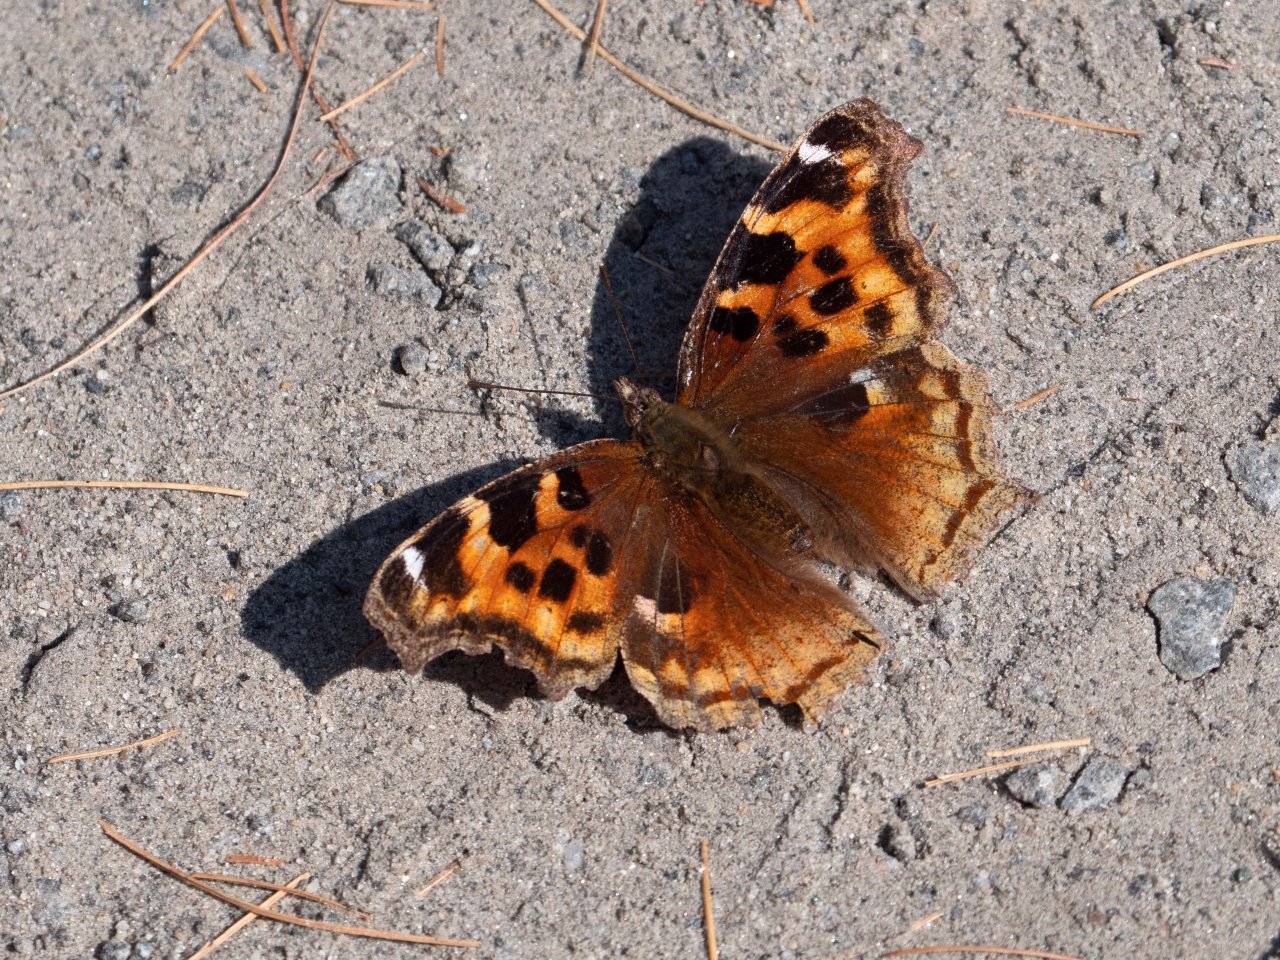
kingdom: Animalia
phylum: Arthropoda
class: Insecta
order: Lepidoptera
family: Nymphalidae
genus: Polygonia
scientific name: Polygonia vaualbum
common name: Compton Tortoiseshell
